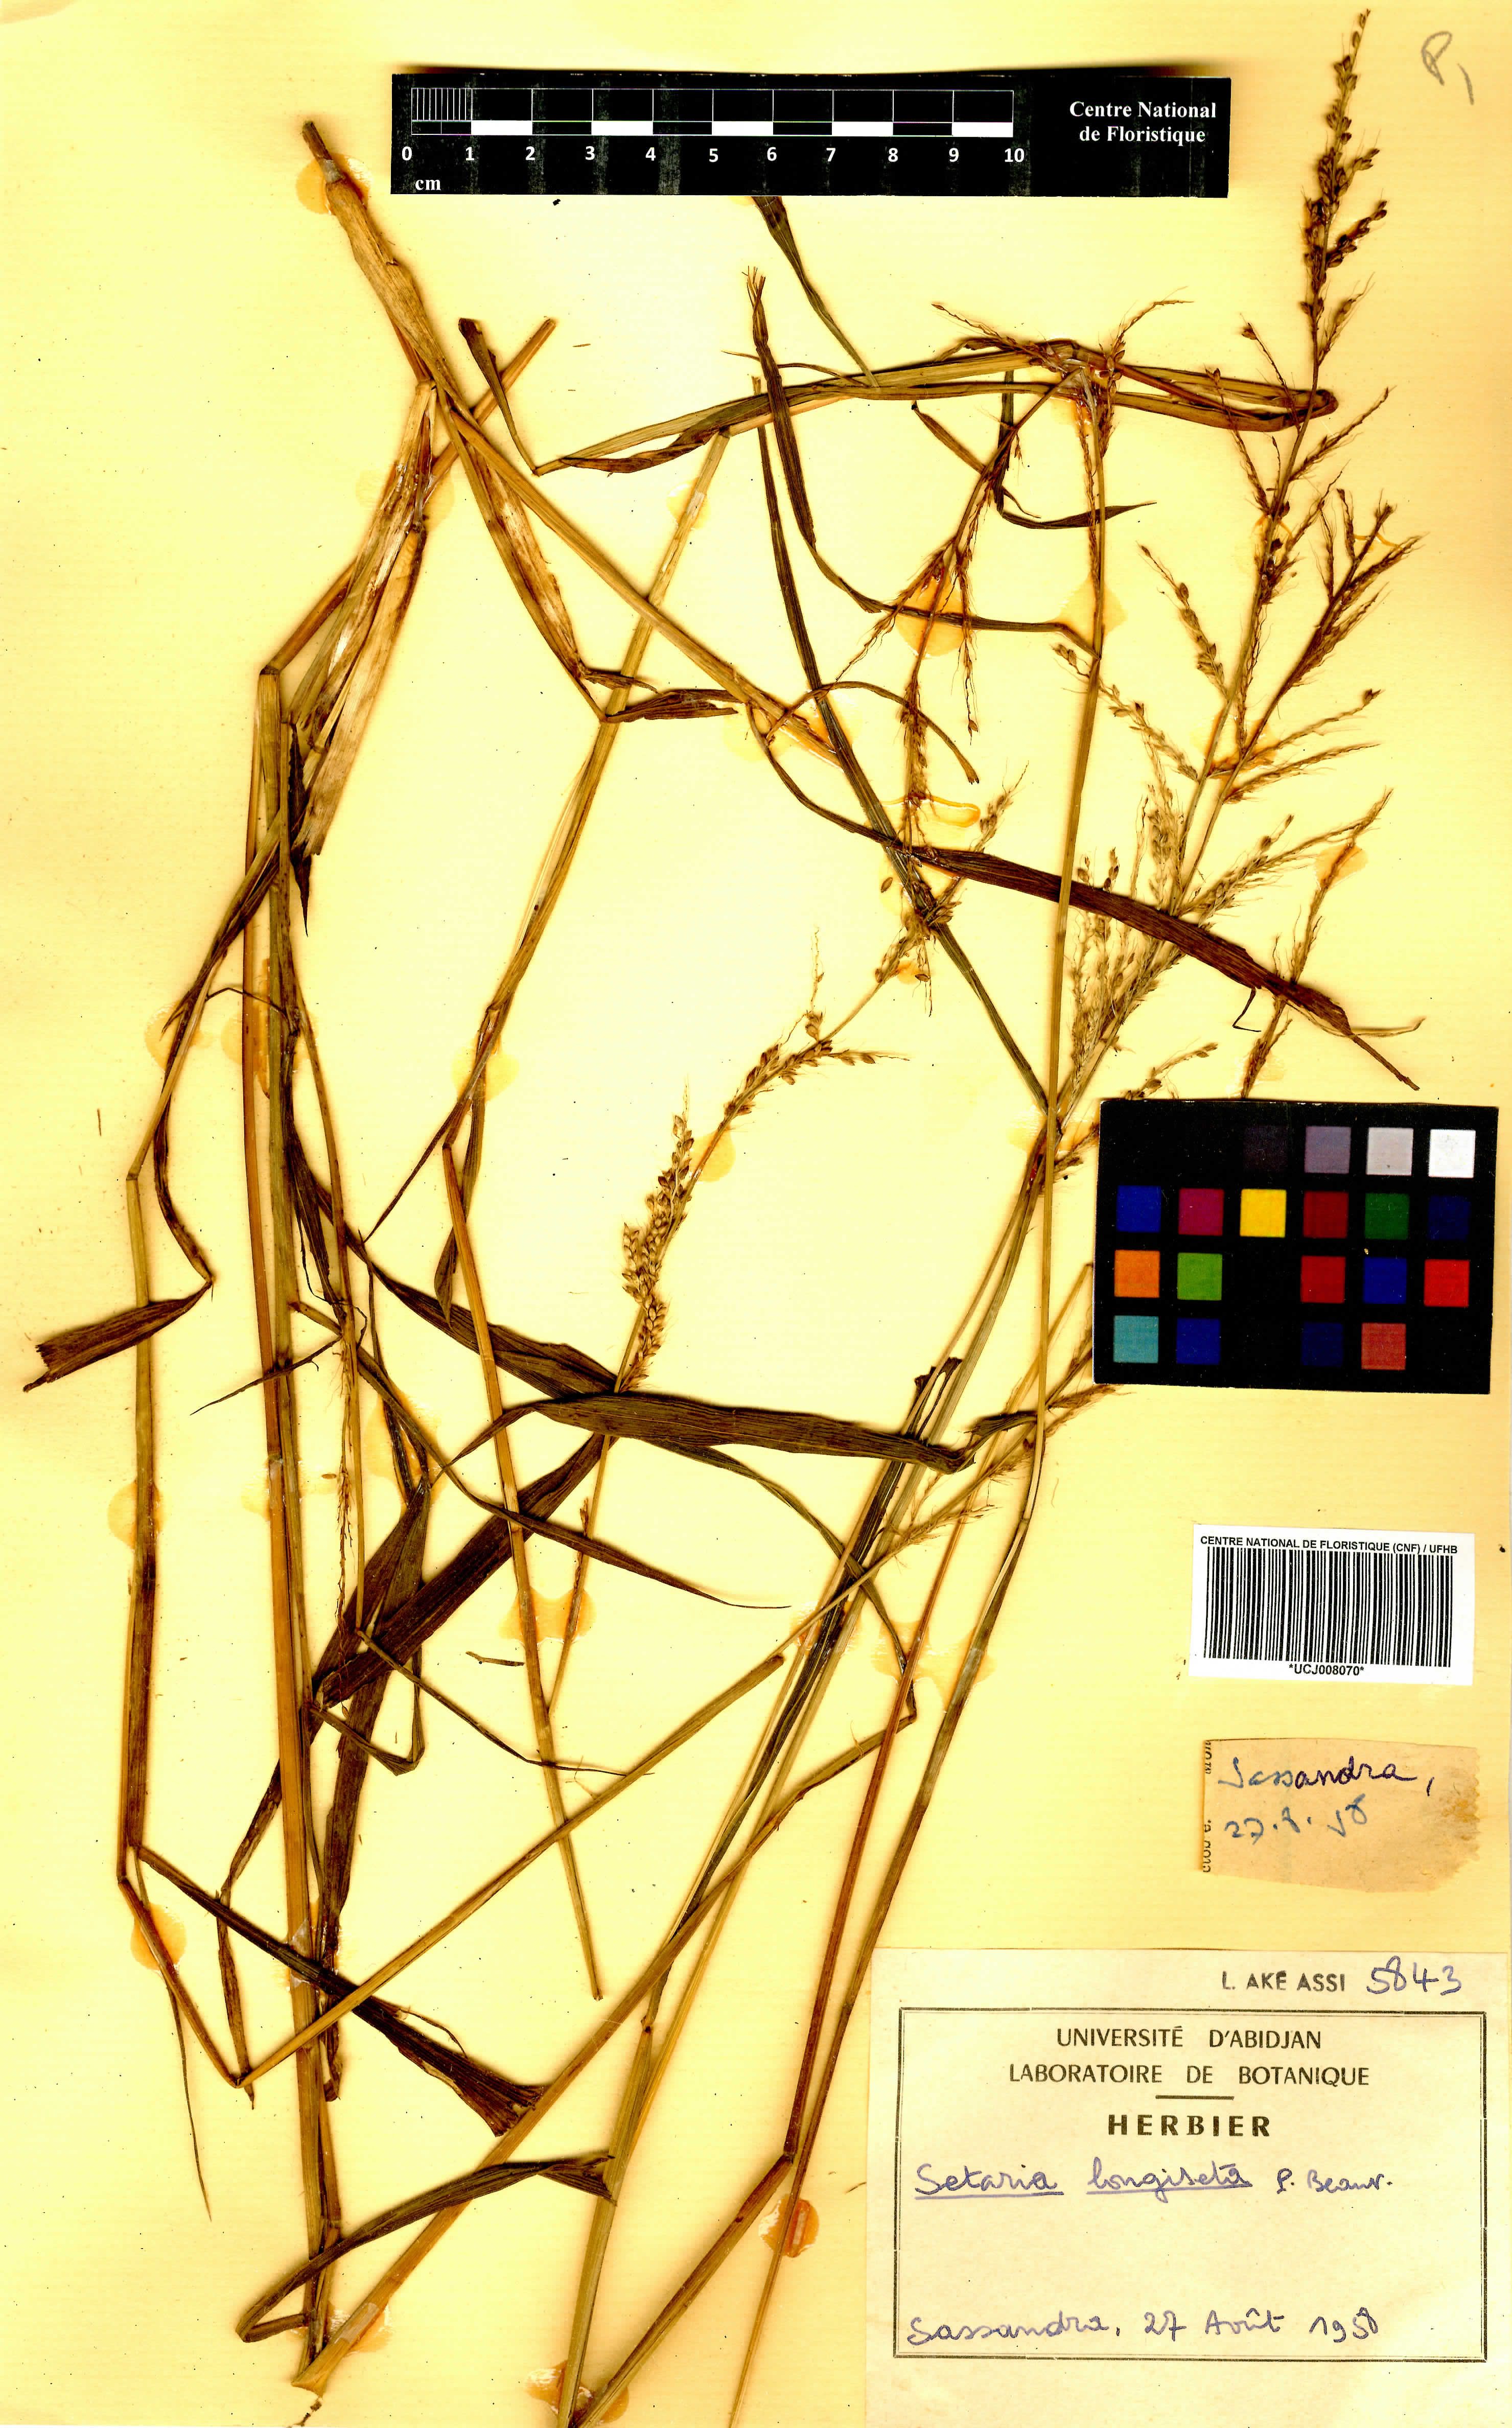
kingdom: Plantae
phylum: Tracheophyta
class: Liliopsida
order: Poales
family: Poaceae
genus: Setaria
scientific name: Setaria longiseta
